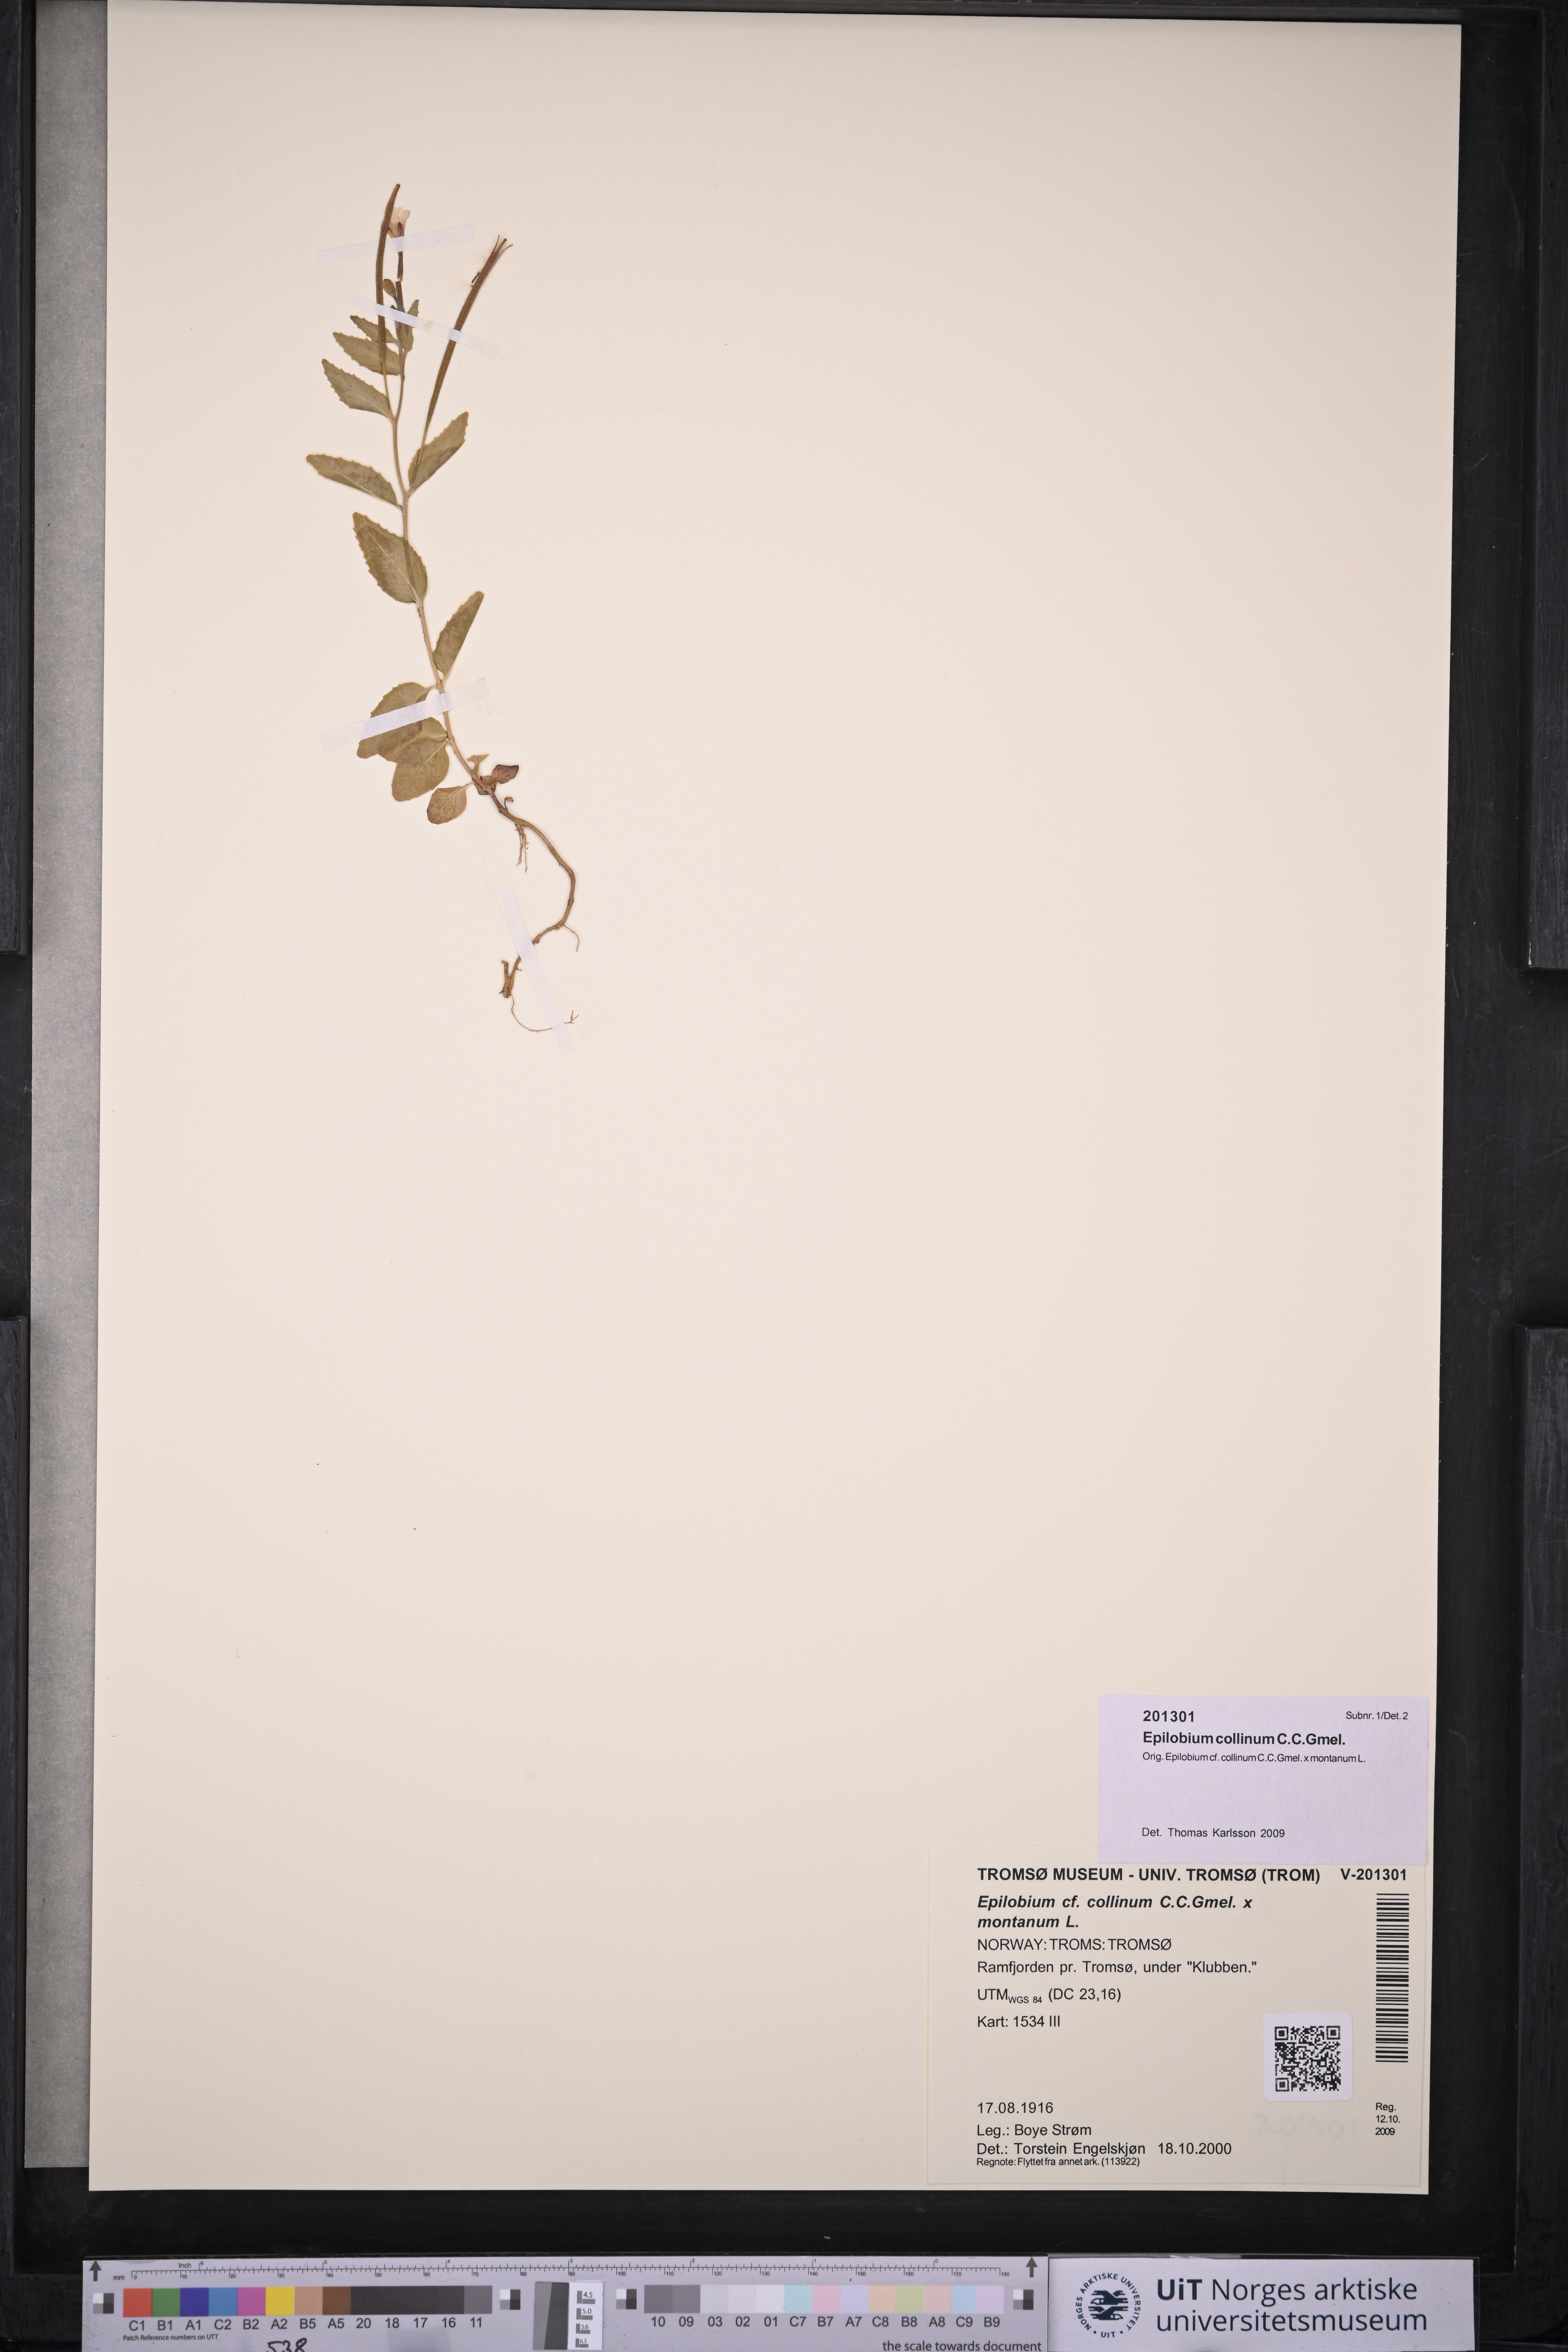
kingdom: Plantae
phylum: Tracheophyta
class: Magnoliopsida
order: Myrtales
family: Onagraceae
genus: Epilobium
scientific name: Epilobium collinum
